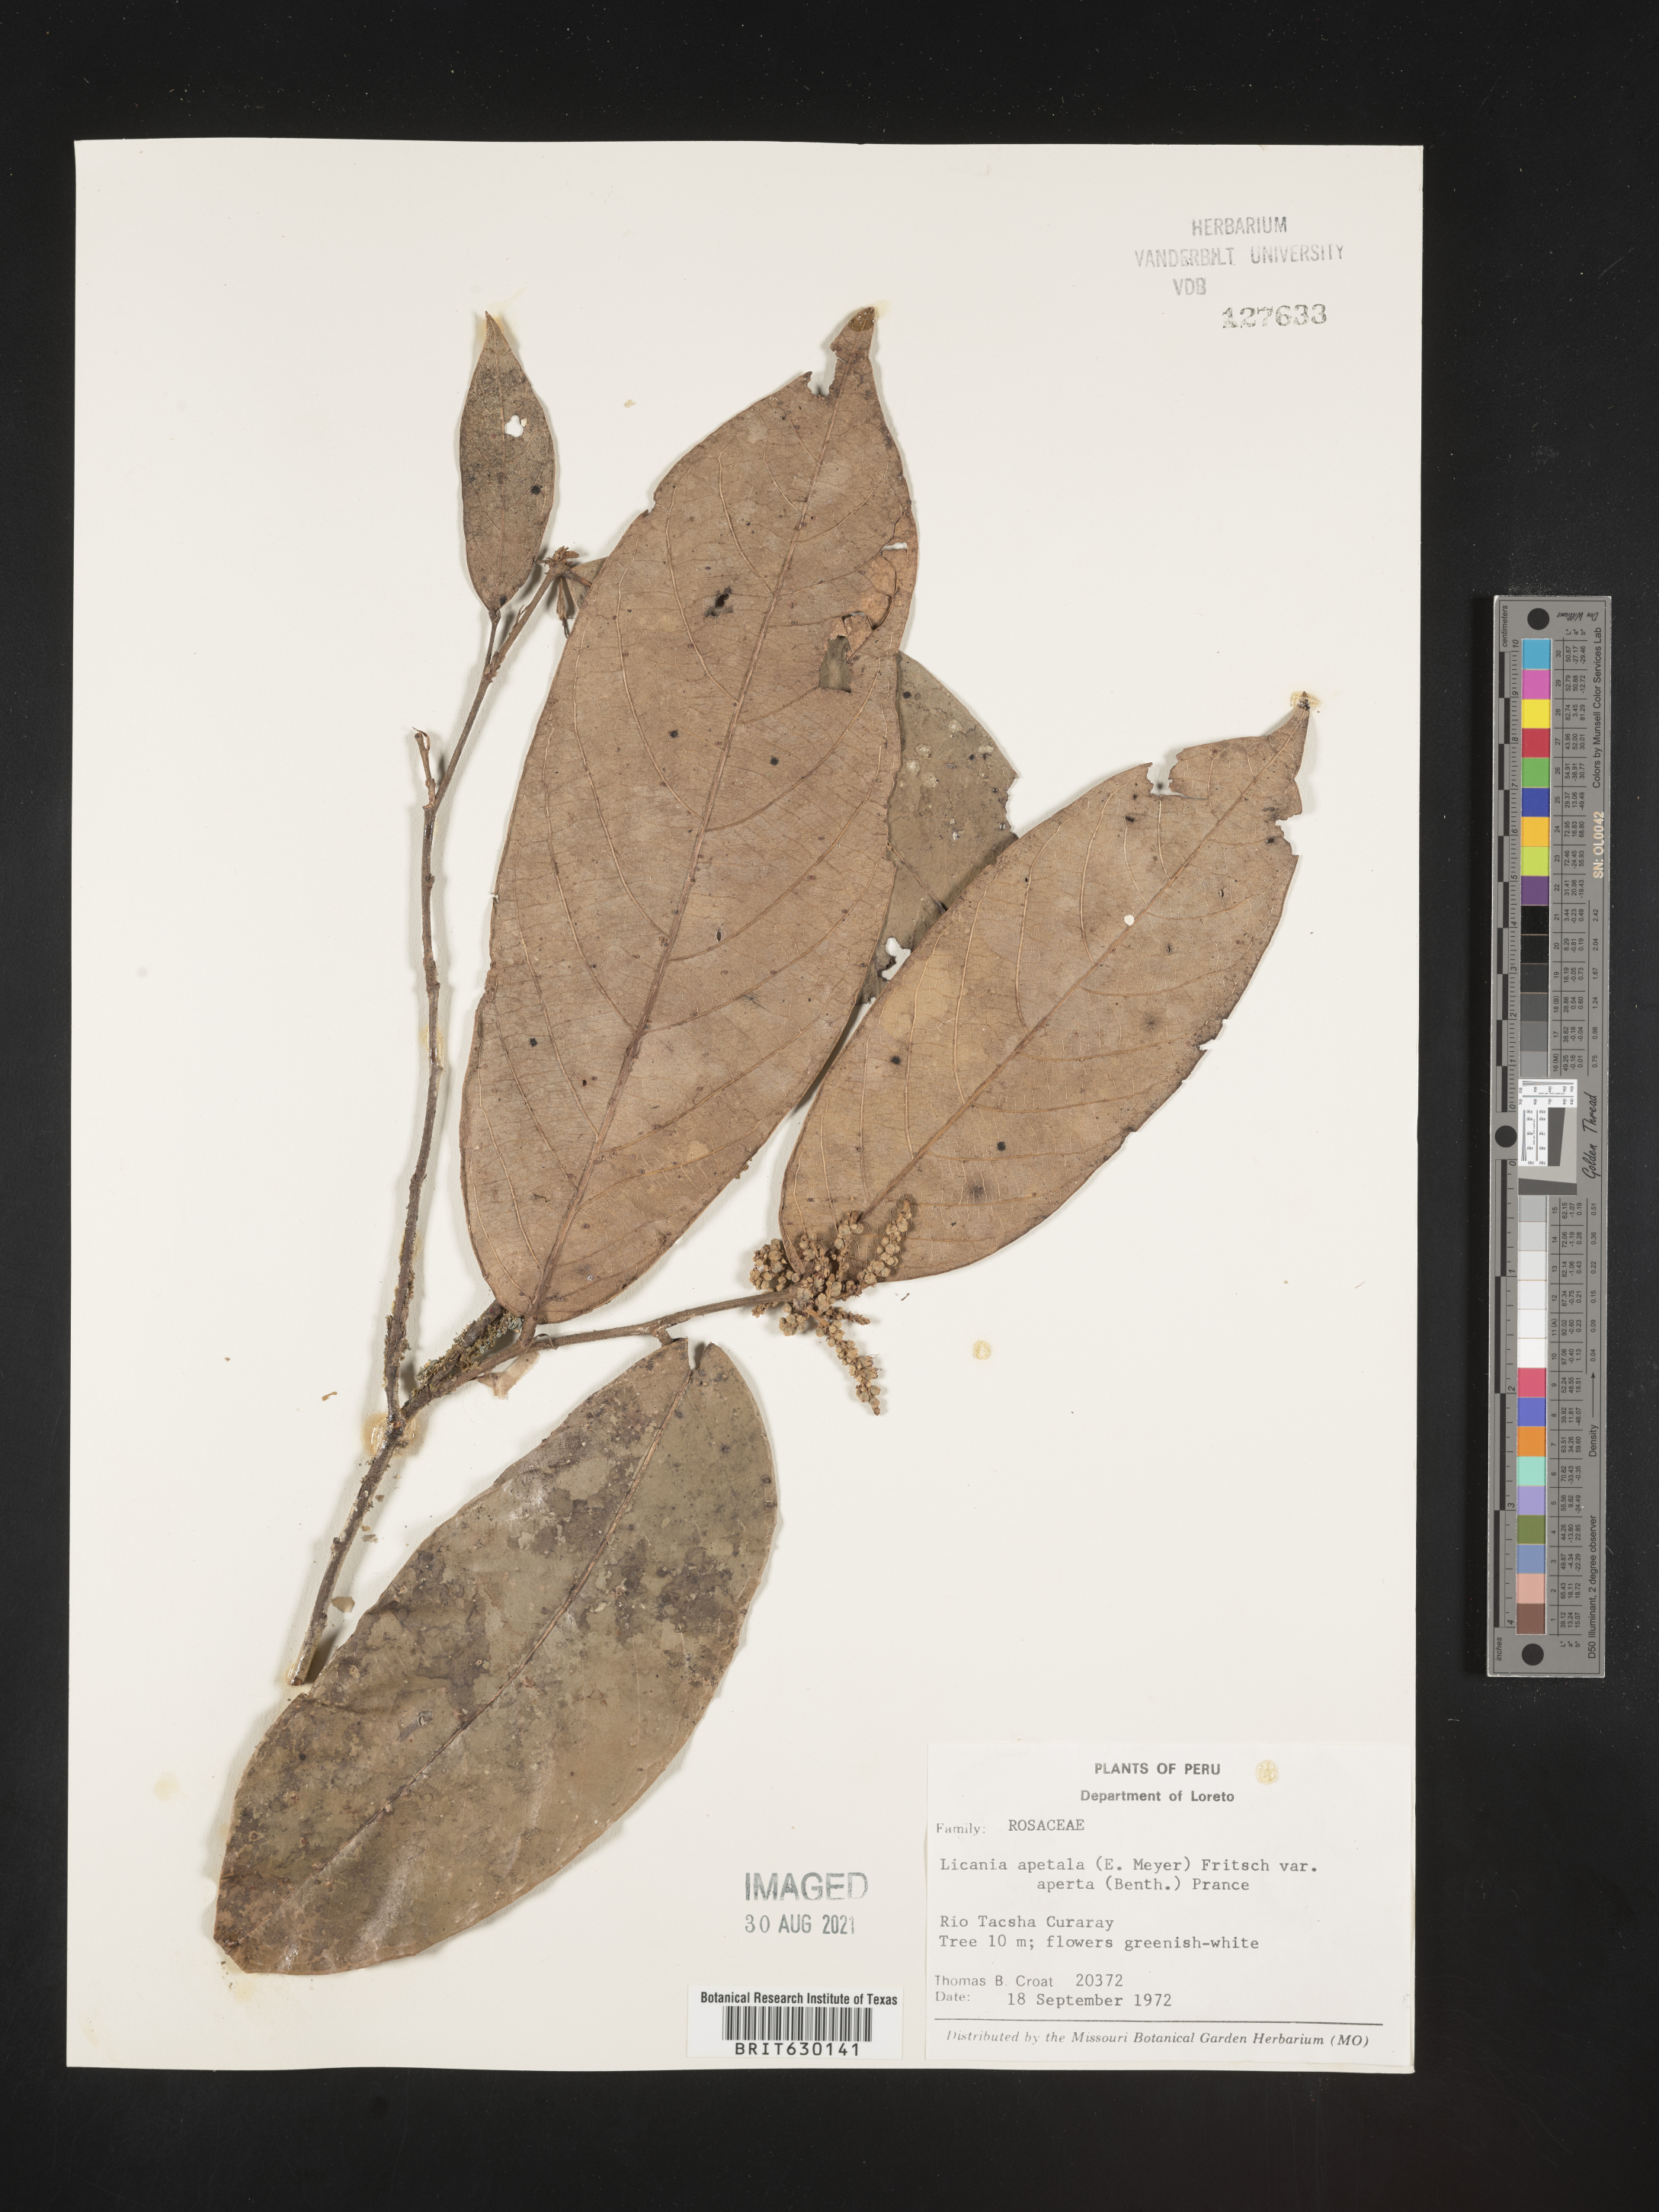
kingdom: Plantae
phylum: Tracheophyta
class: Magnoliopsida
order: Malpighiales
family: Chrysobalanaceae
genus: Leptobalanus
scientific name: Leptobalanus apetalus
